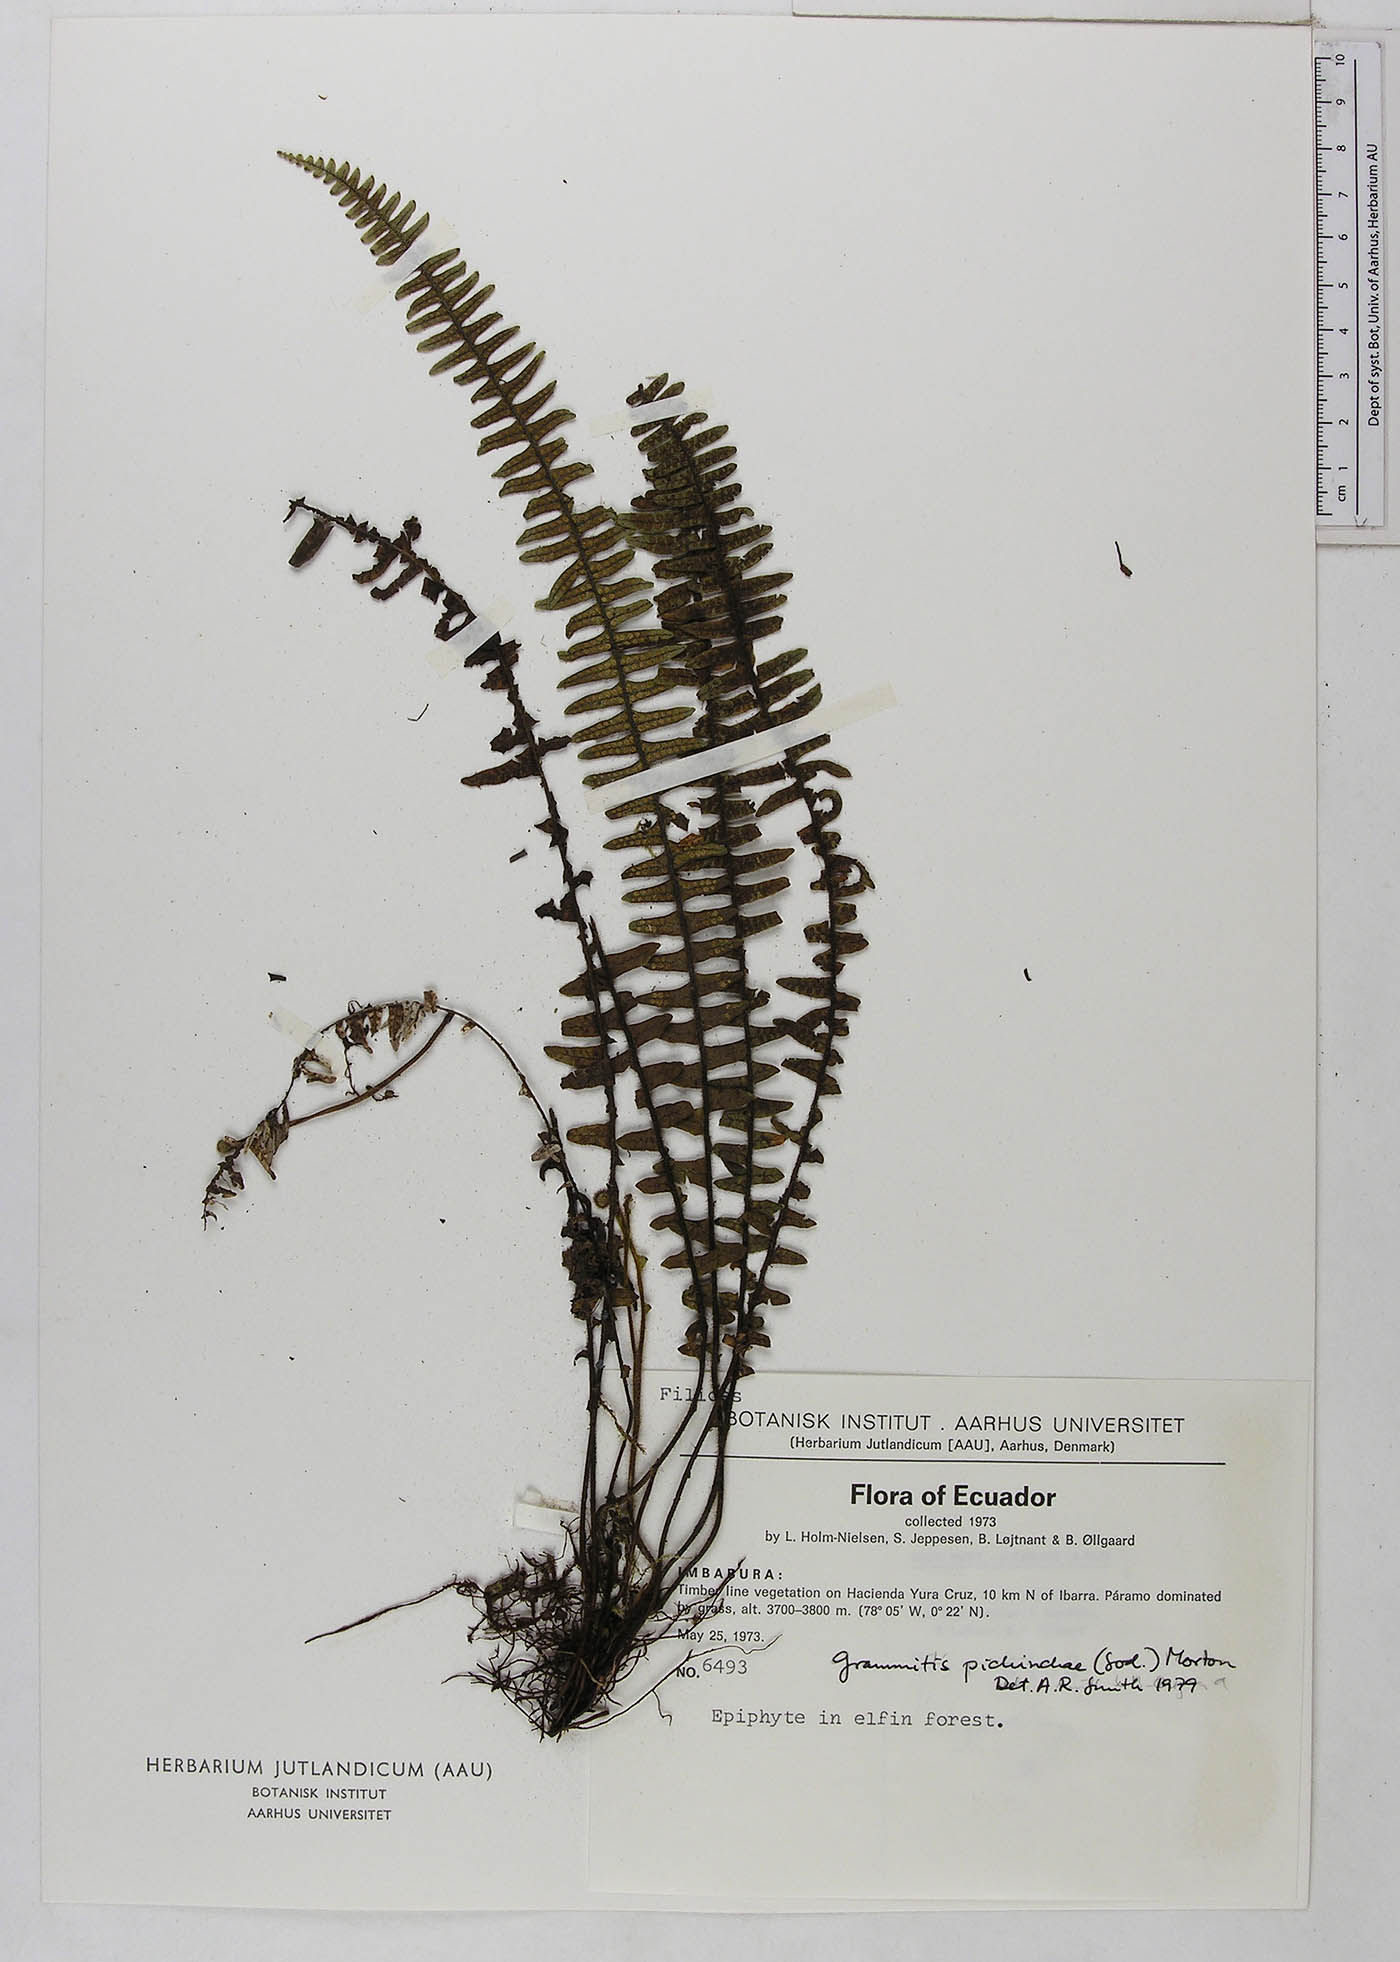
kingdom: Plantae
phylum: Tracheophyta
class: Polypodiopsida
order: Polypodiales
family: Polypodiaceae
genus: Ascogrammitis
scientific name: Ascogrammitis pichinchae
